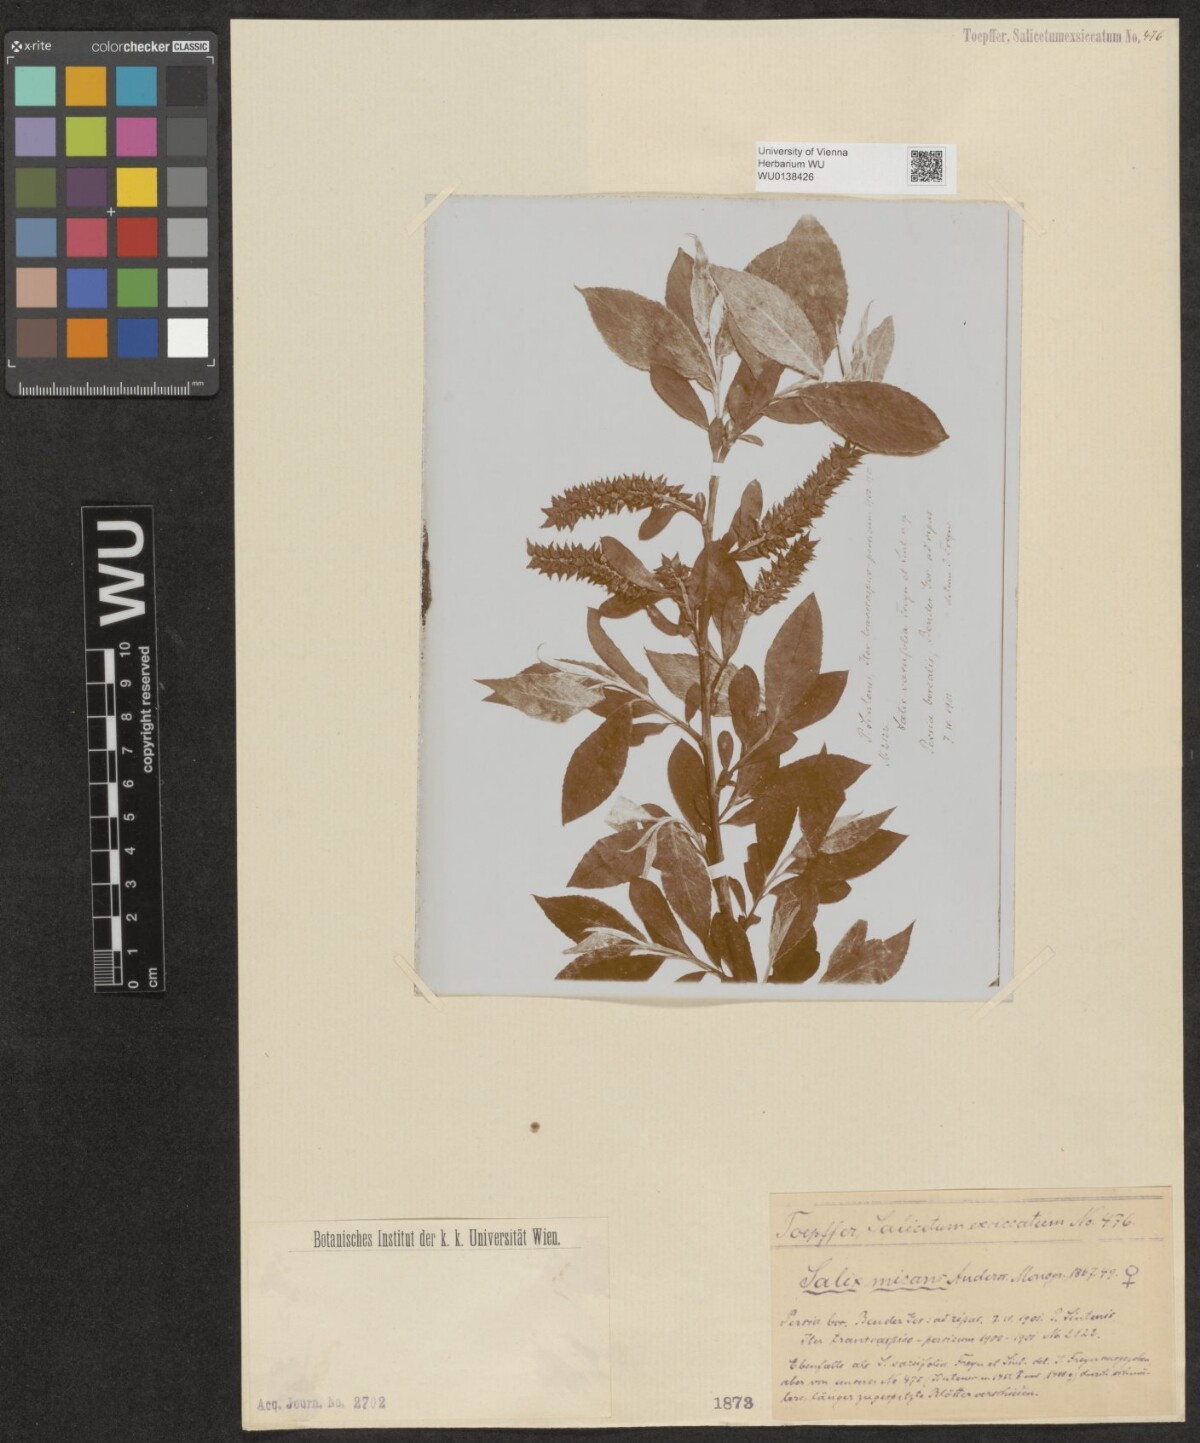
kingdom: Plantae
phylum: Tracheophyta
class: Magnoliopsida
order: Malpighiales
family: Salicaceae
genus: Salix
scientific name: Salix alba
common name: White willow
